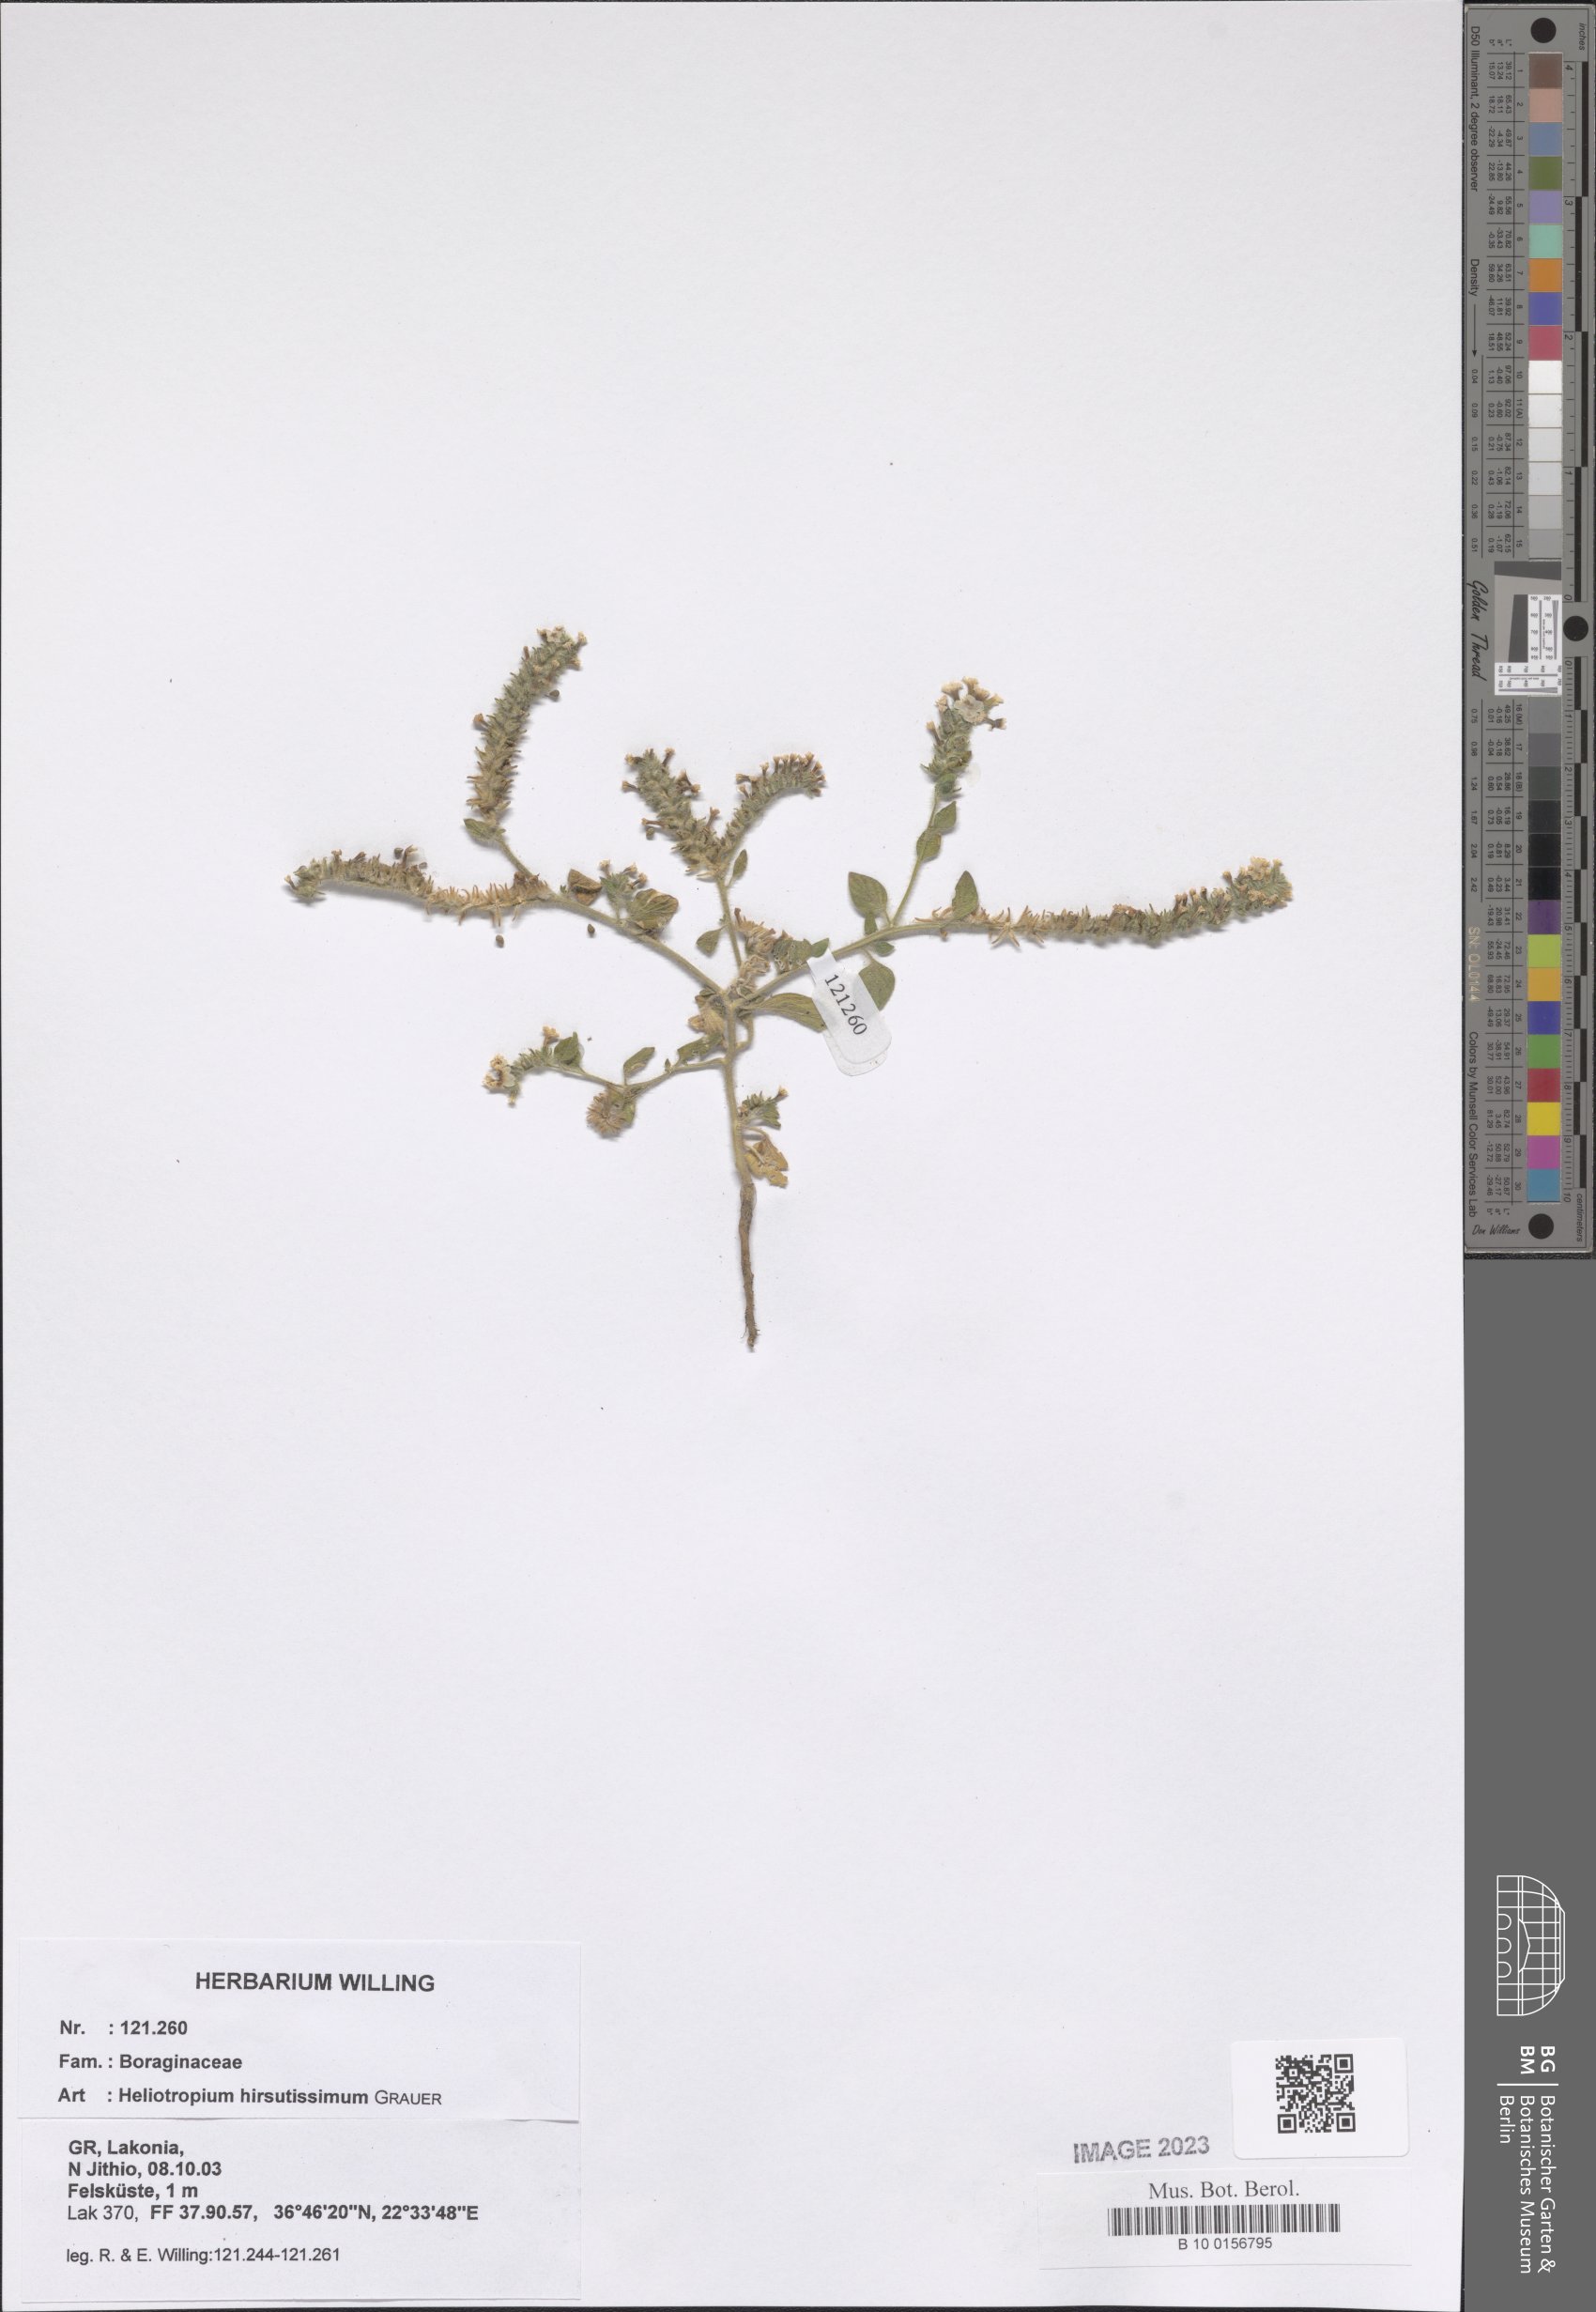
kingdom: Plantae
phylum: Tracheophyta
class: Magnoliopsida
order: Boraginales
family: Heliotropiaceae
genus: Heliotropium
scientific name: Heliotropium hirsutissimum
